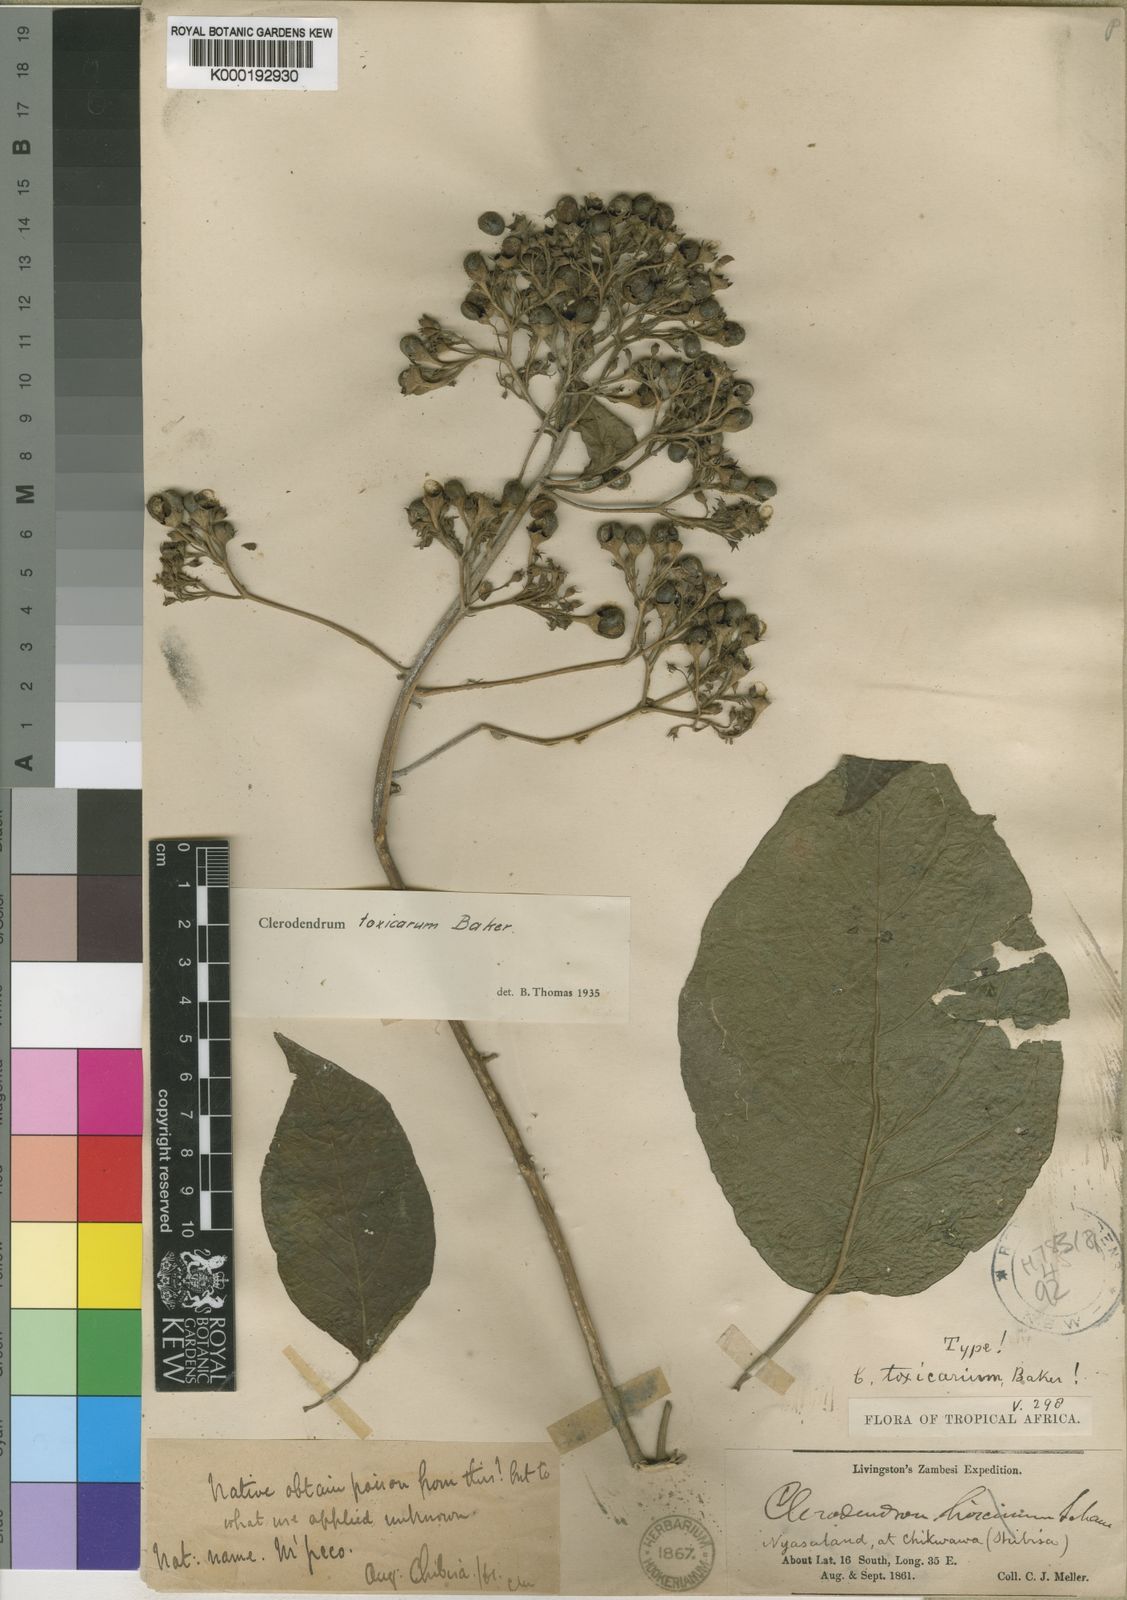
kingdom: Plantae
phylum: Tracheophyta
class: Magnoliopsida
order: Lamiales
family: Lamiaceae
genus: Clerodendrum
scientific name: Clerodendrum toxicarium
